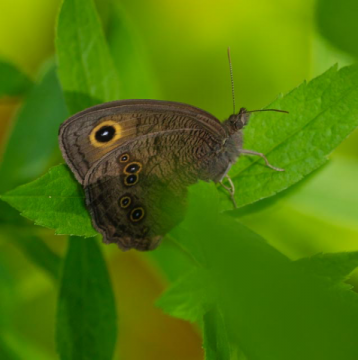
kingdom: Animalia
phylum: Arthropoda
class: Insecta
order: Lepidoptera
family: Nymphalidae
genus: Cercyonis
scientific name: Cercyonis pegala
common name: Common Wood-Nymph
